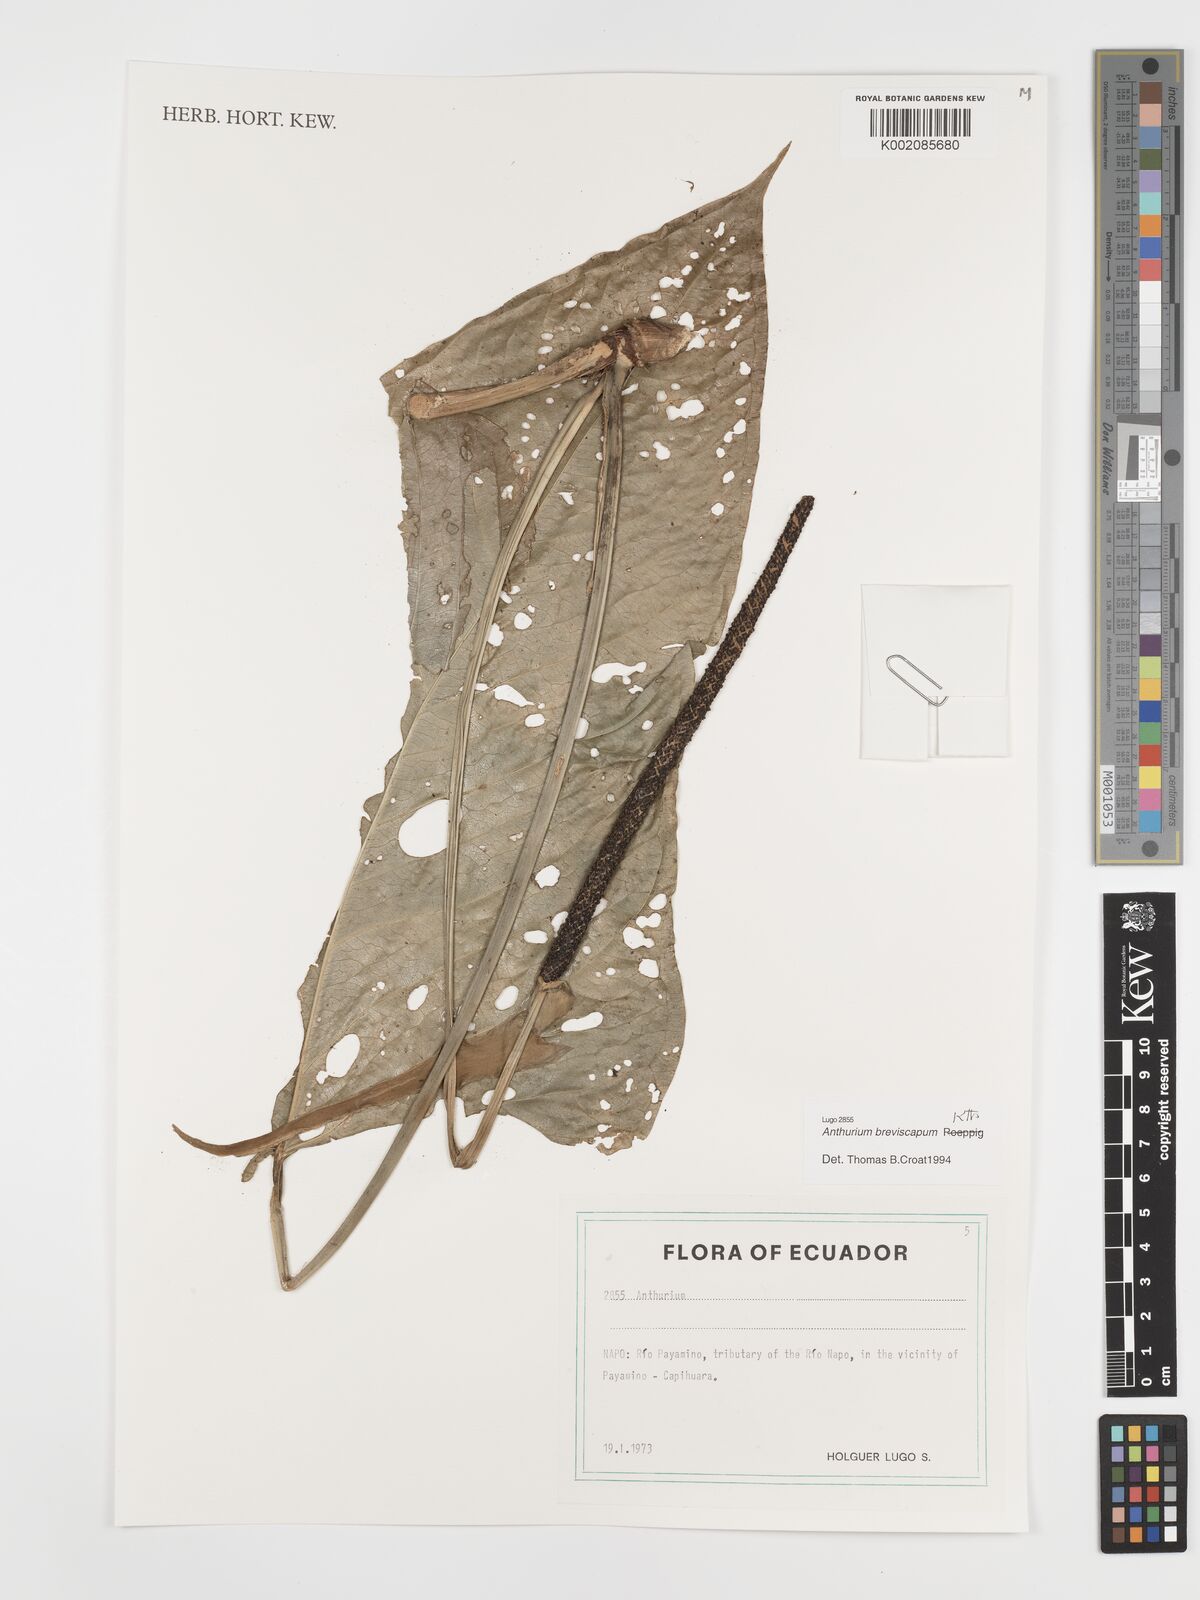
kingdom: Plantae
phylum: Tracheophyta
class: Liliopsida
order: Alismatales
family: Araceae
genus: Anthurium
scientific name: Anthurium breviscapum
